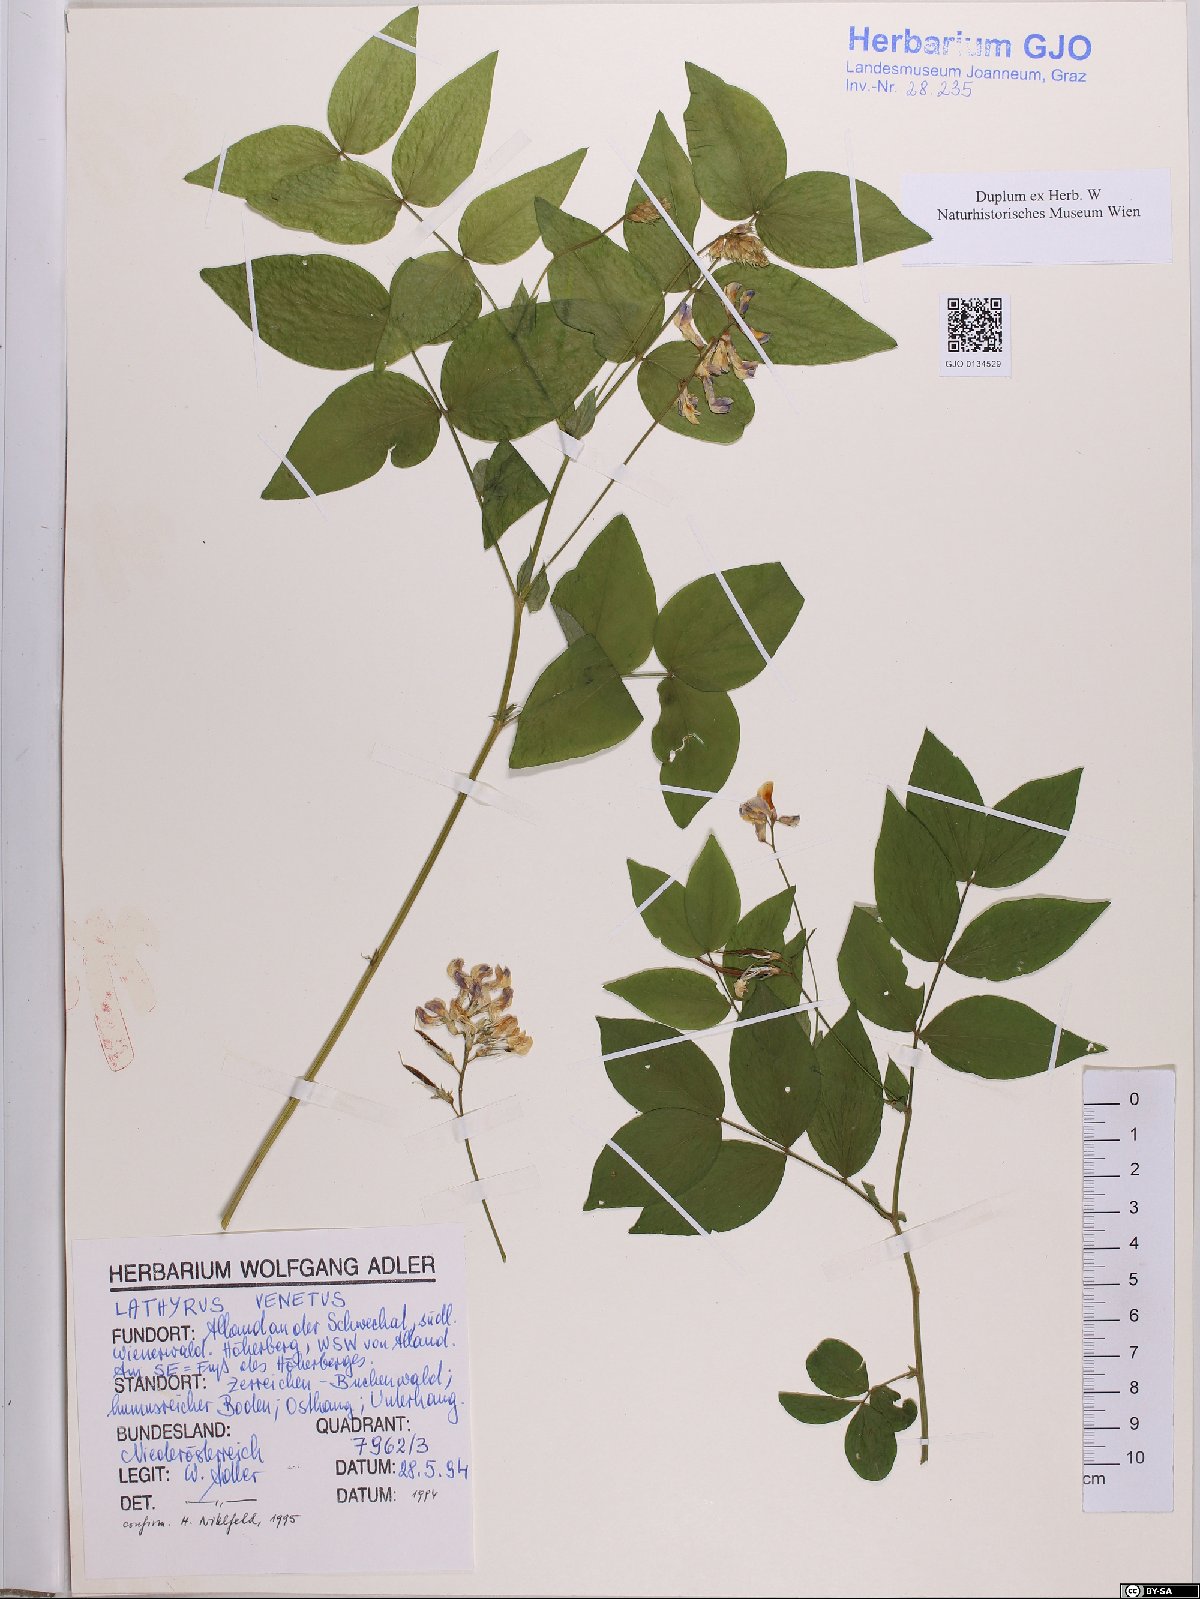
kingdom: Plantae
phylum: Tracheophyta
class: Magnoliopsida
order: Fabales
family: Fabaceae
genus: Lathyrus
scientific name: Lathyrus venetus
